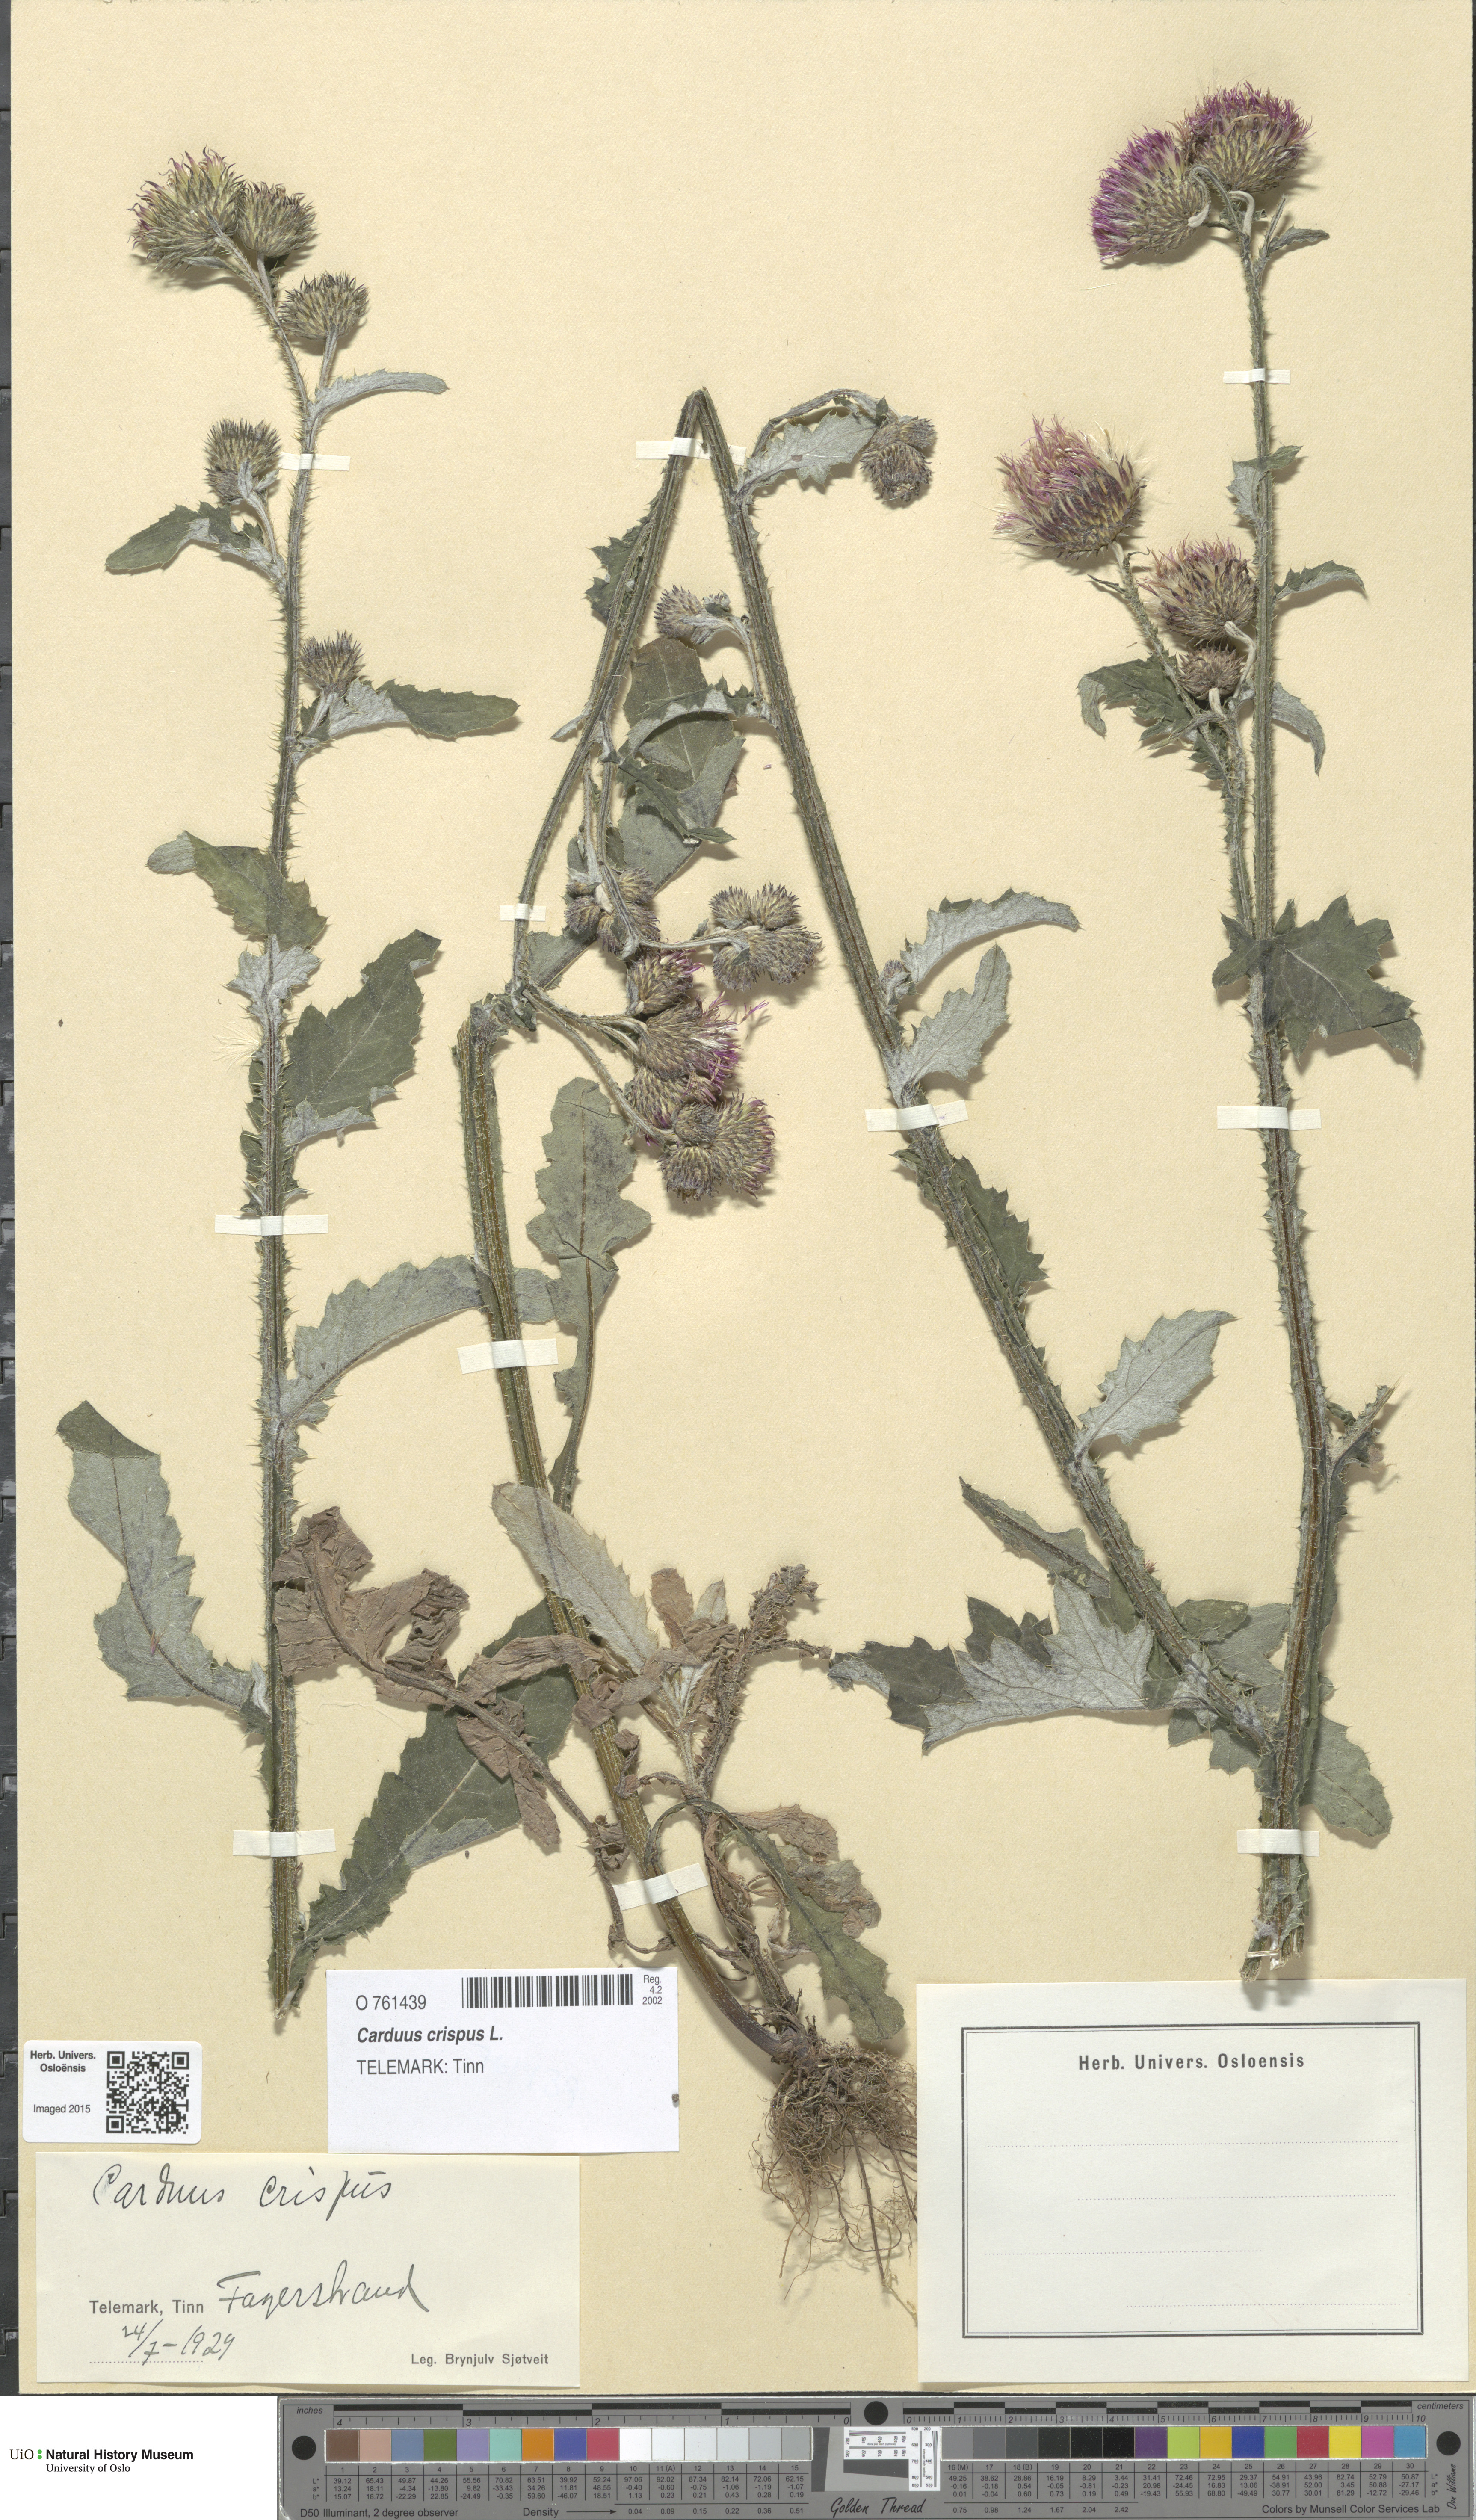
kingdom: Plantae
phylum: Tracheophyta
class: Magnoliopsida
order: Asterales
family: Asteraceae
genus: Carduus
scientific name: Carduus crispus
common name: Welted thistle
